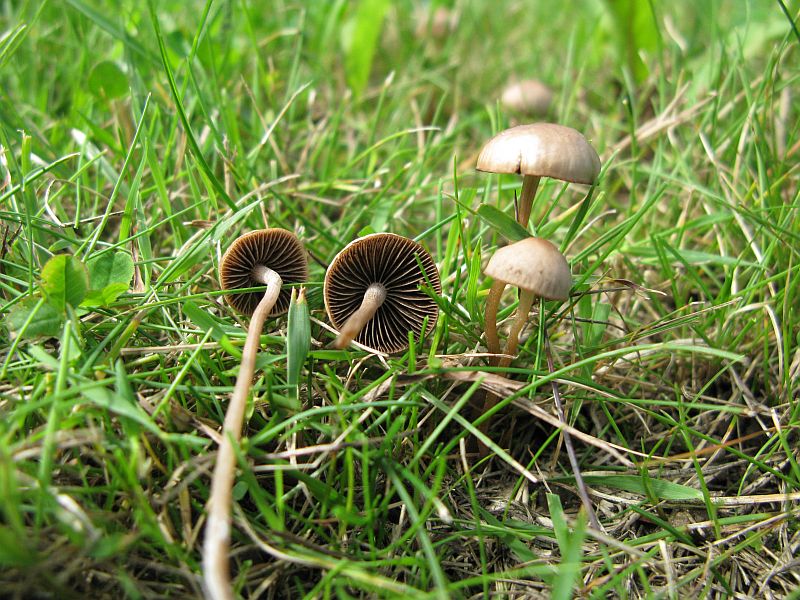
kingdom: Fungi
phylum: Basidiomycota
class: Agaricomycetes
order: Agaricales
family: Bolbitiaceae
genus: Panaeolina
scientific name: Panaeolina foenisecii
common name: høslætsvamp
